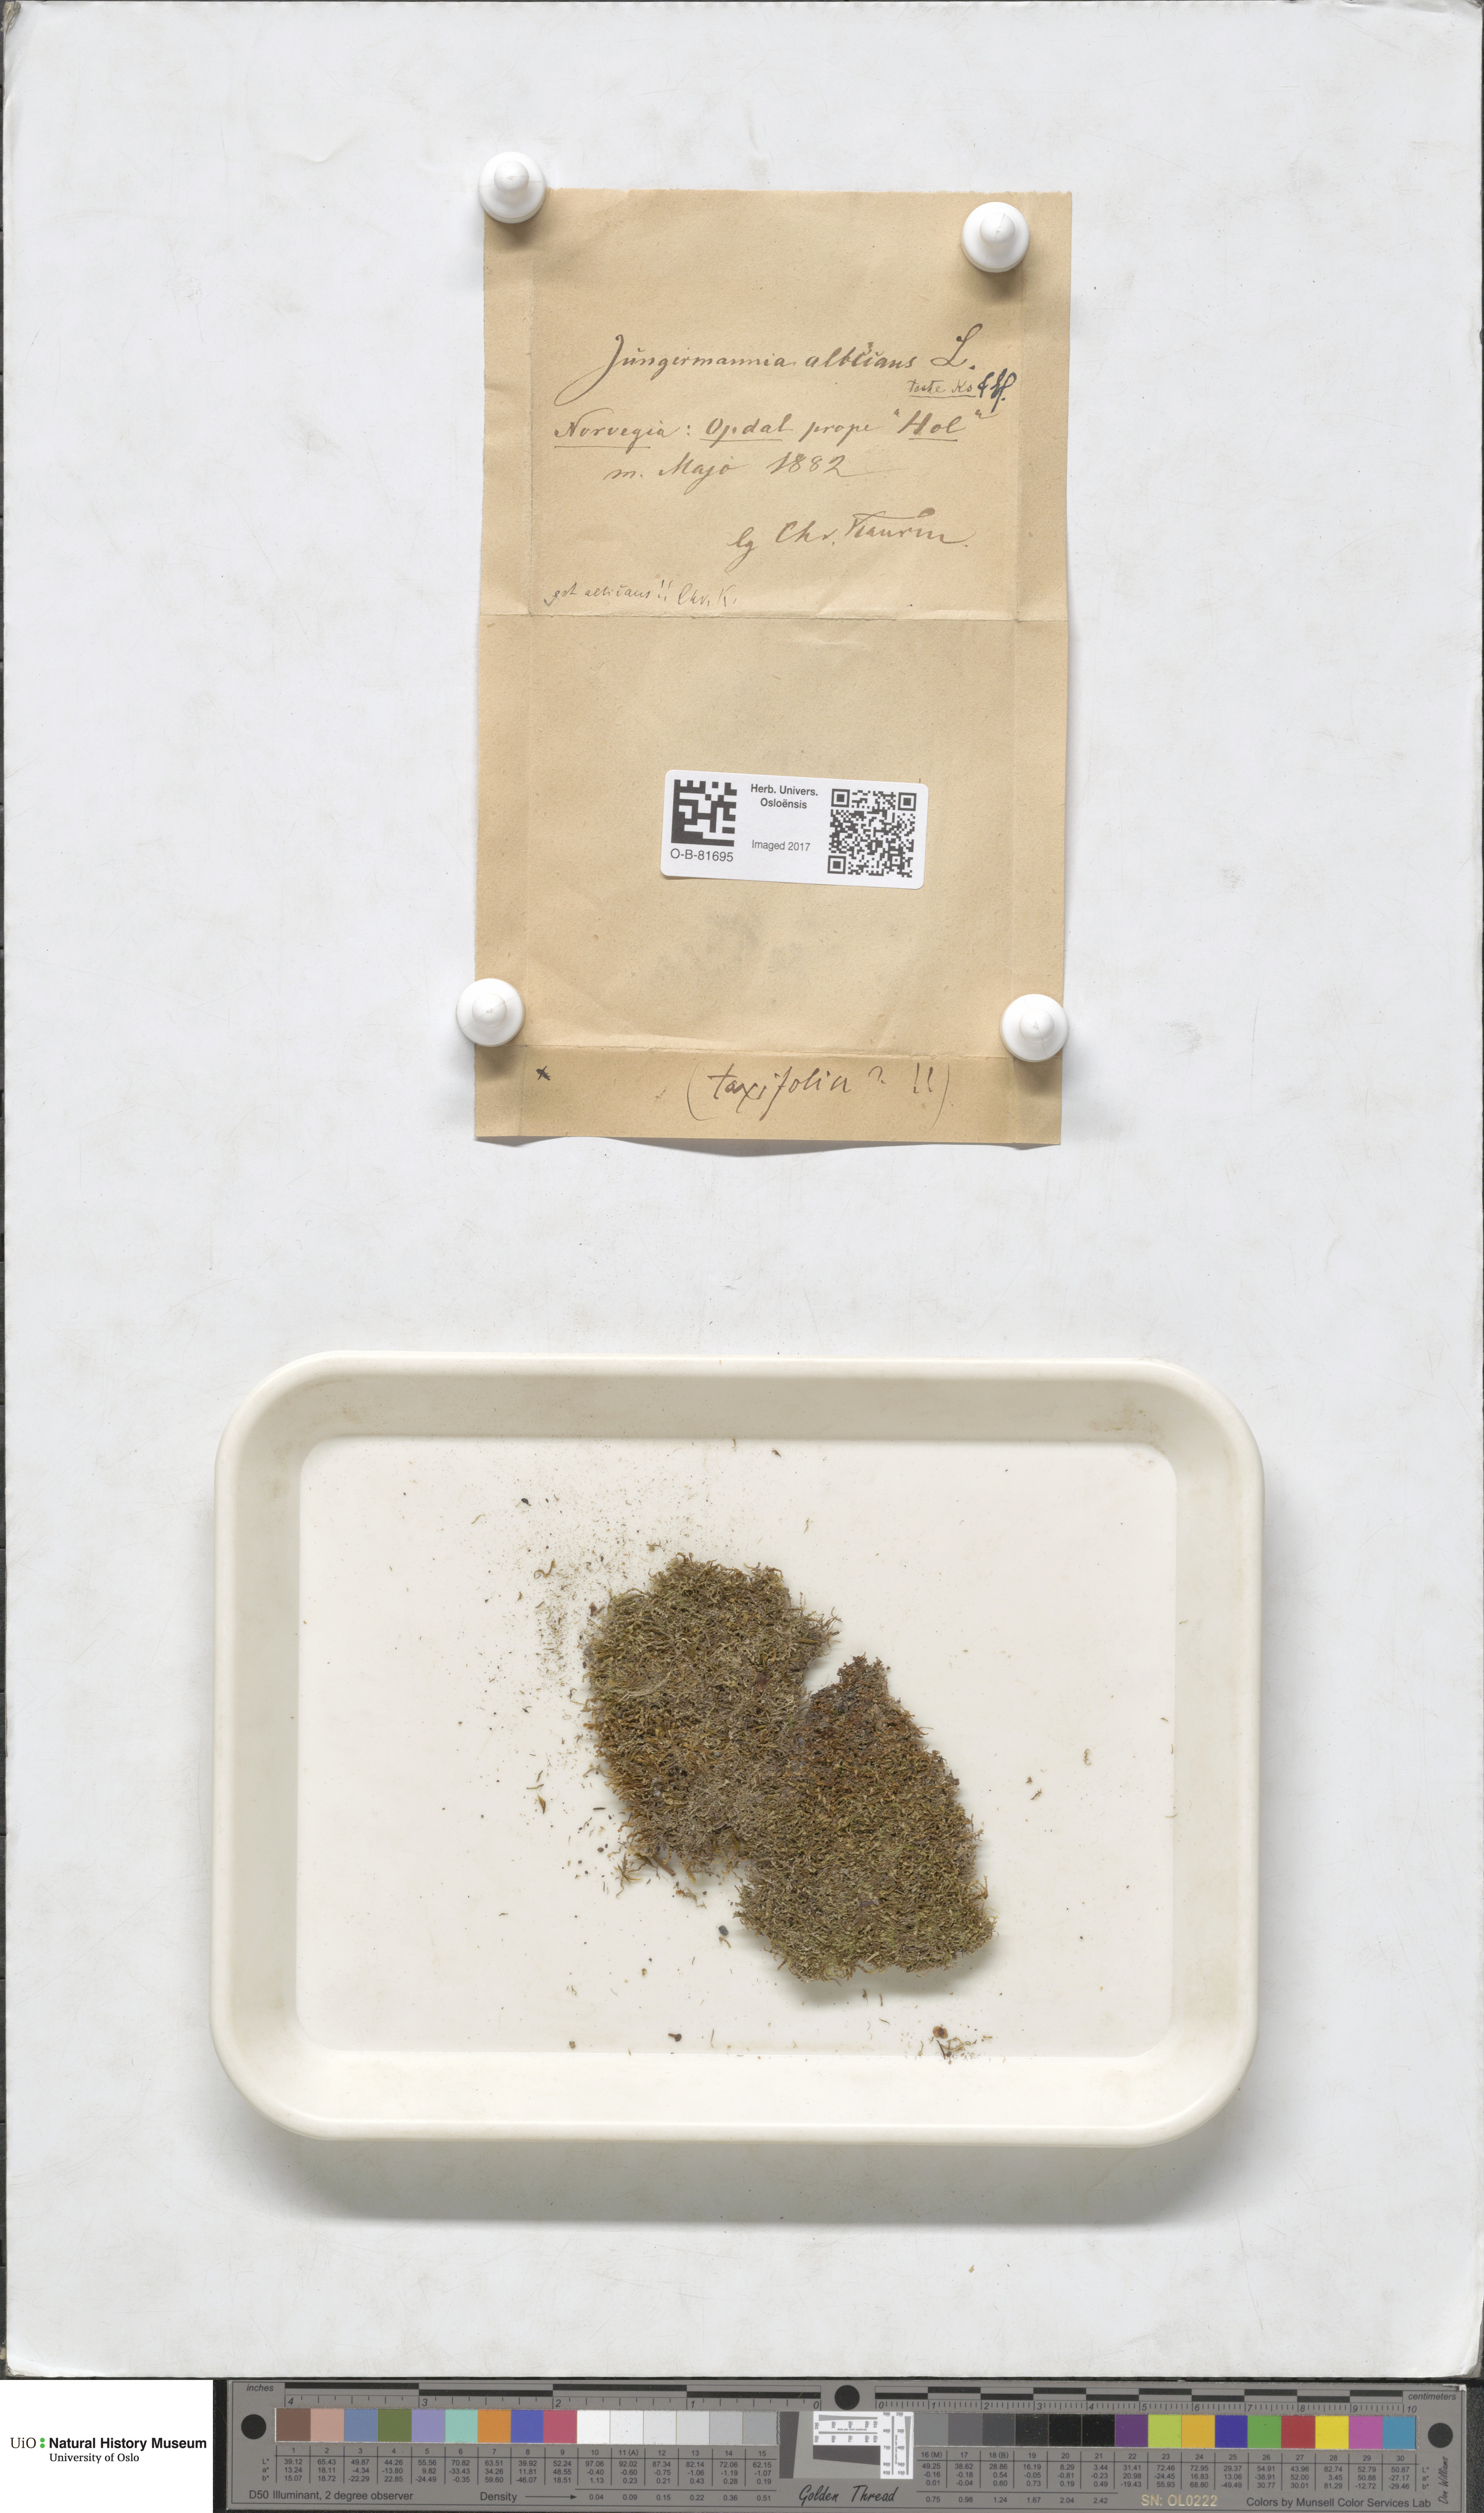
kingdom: Plantae
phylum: Marchantiophyta
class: Jungermanniopsida
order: Jungermanniales
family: Cephaloziaceae
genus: Fuscocephaloziopsis
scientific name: Fuscocephaloziopsis albescens
